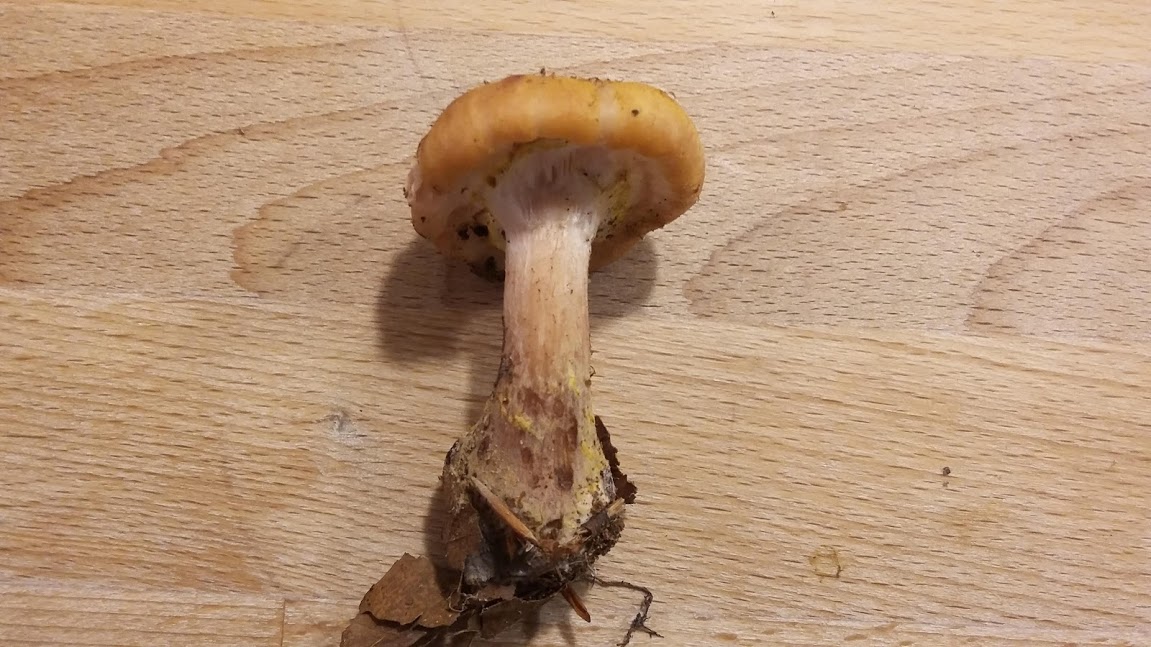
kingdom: Fungi
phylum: Basidiomycota
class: Agaricomycetes
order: Agaricales
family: Physalacriaceae
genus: Armillaria
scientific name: Armillaria lutea
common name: køllestokket honningsvamp
